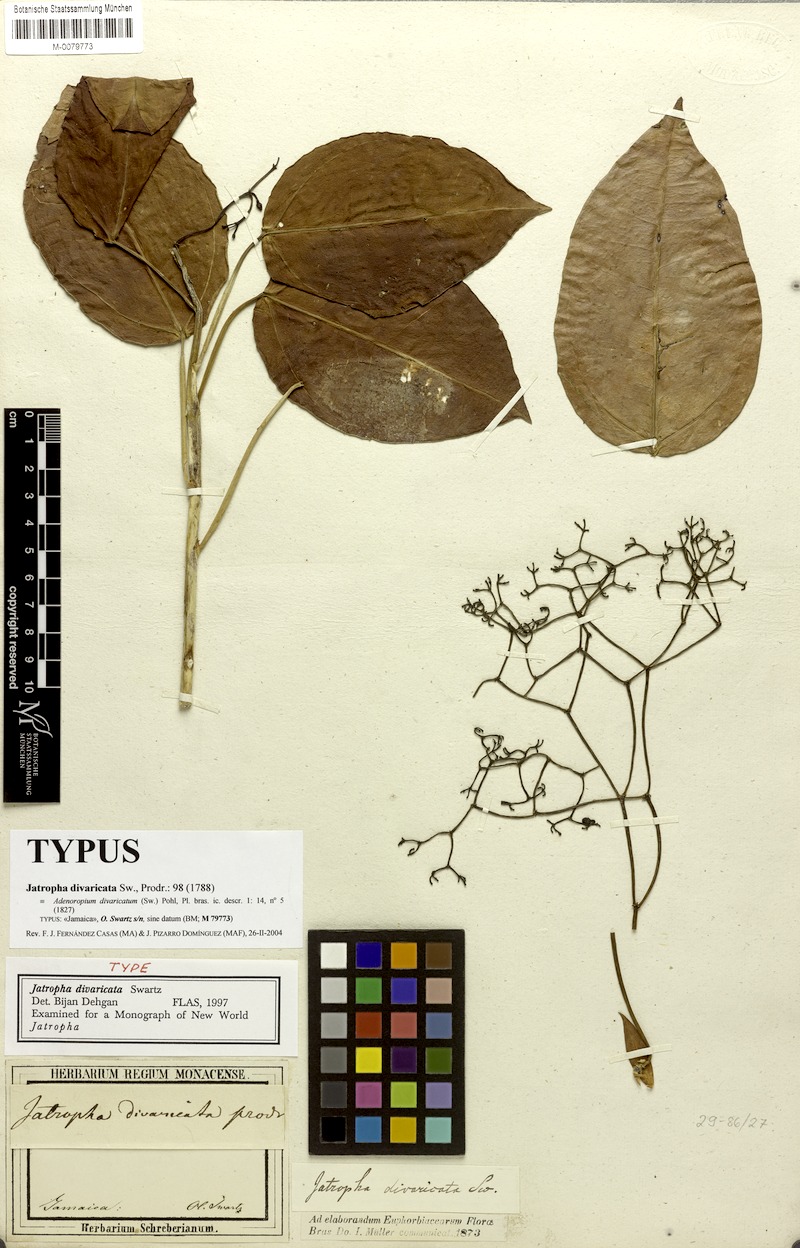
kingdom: Plantae
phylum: Tracheophyta
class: Magnoliopsida
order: Malpighiales
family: Euphorbiaceae
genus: Jatropha
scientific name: Jatropha divaricata
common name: Wild oil nut
